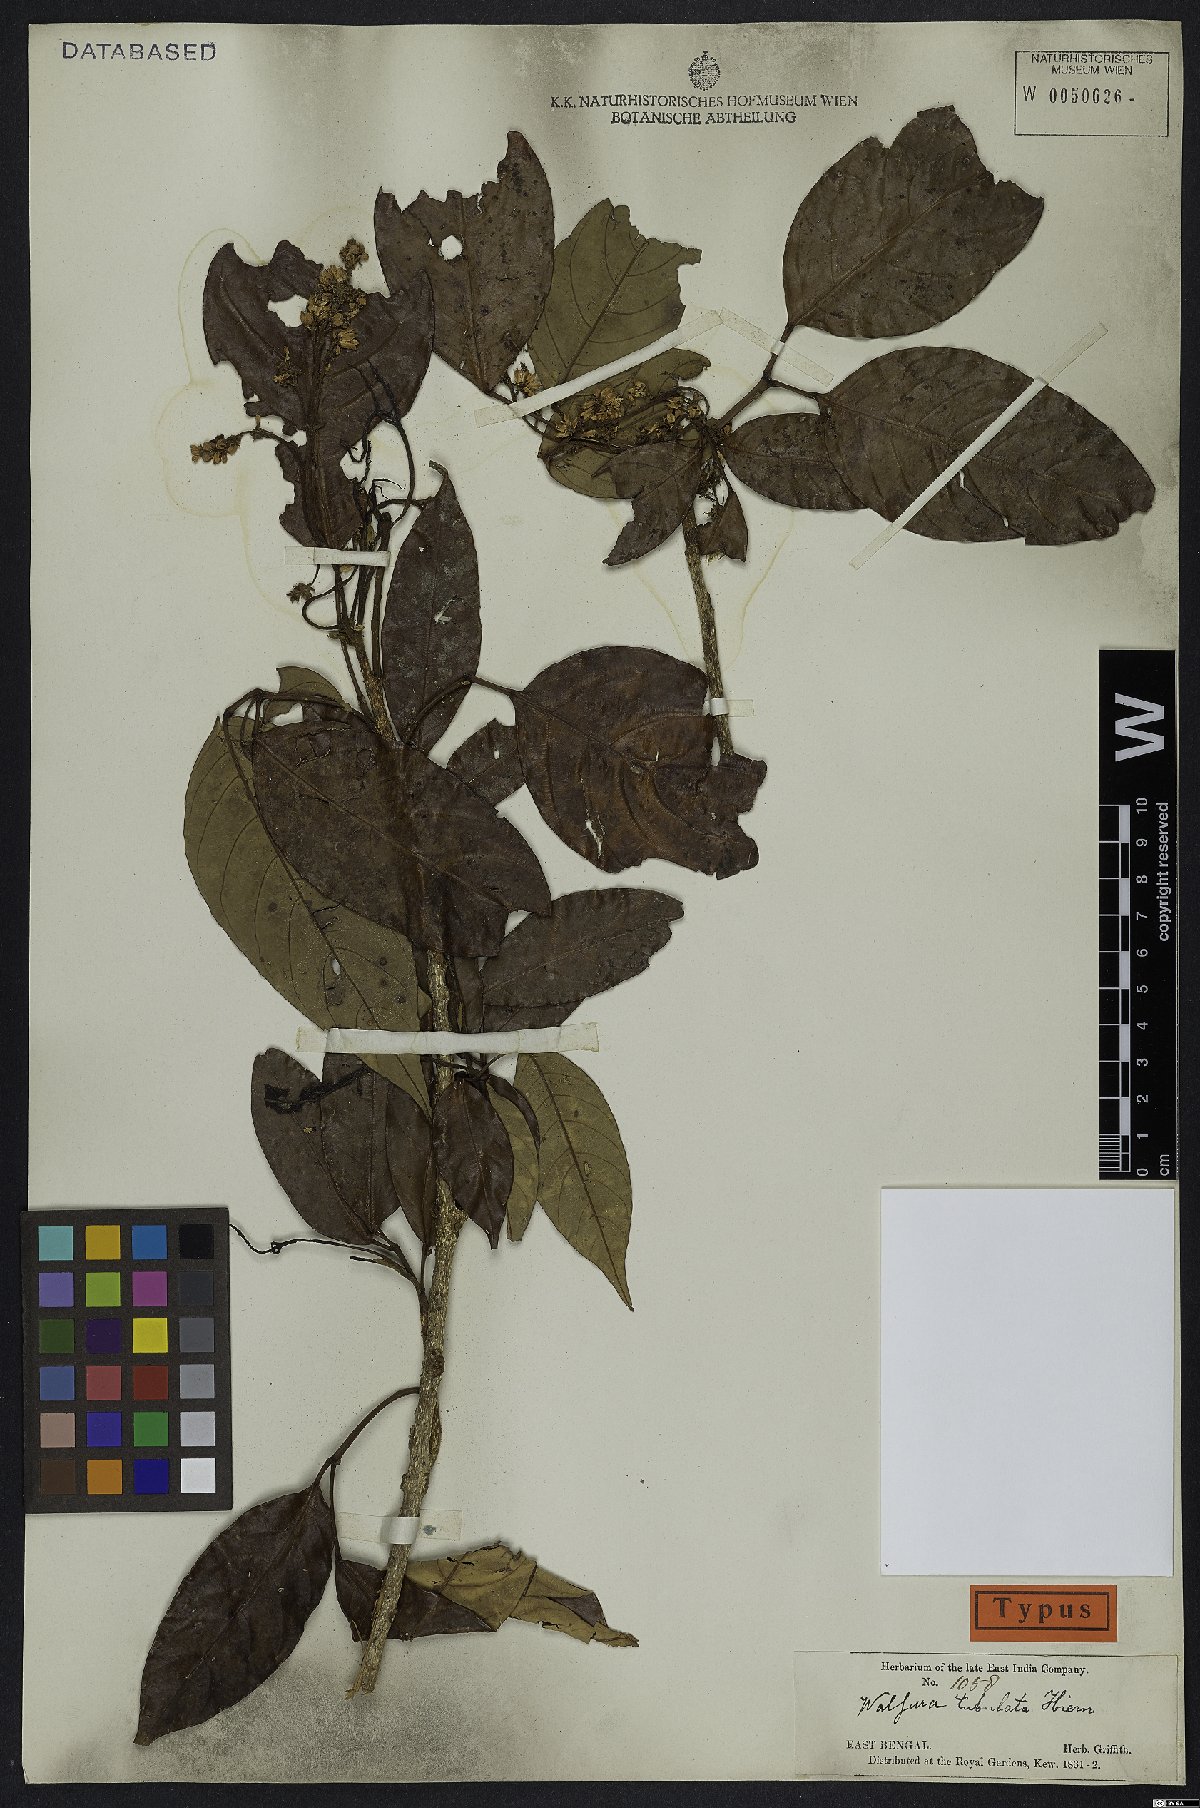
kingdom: Plantae
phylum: Tracheophyta
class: Magnoliopsida
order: Sapindales
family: Meliaceae
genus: Walsura
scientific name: Walsura tubulata
